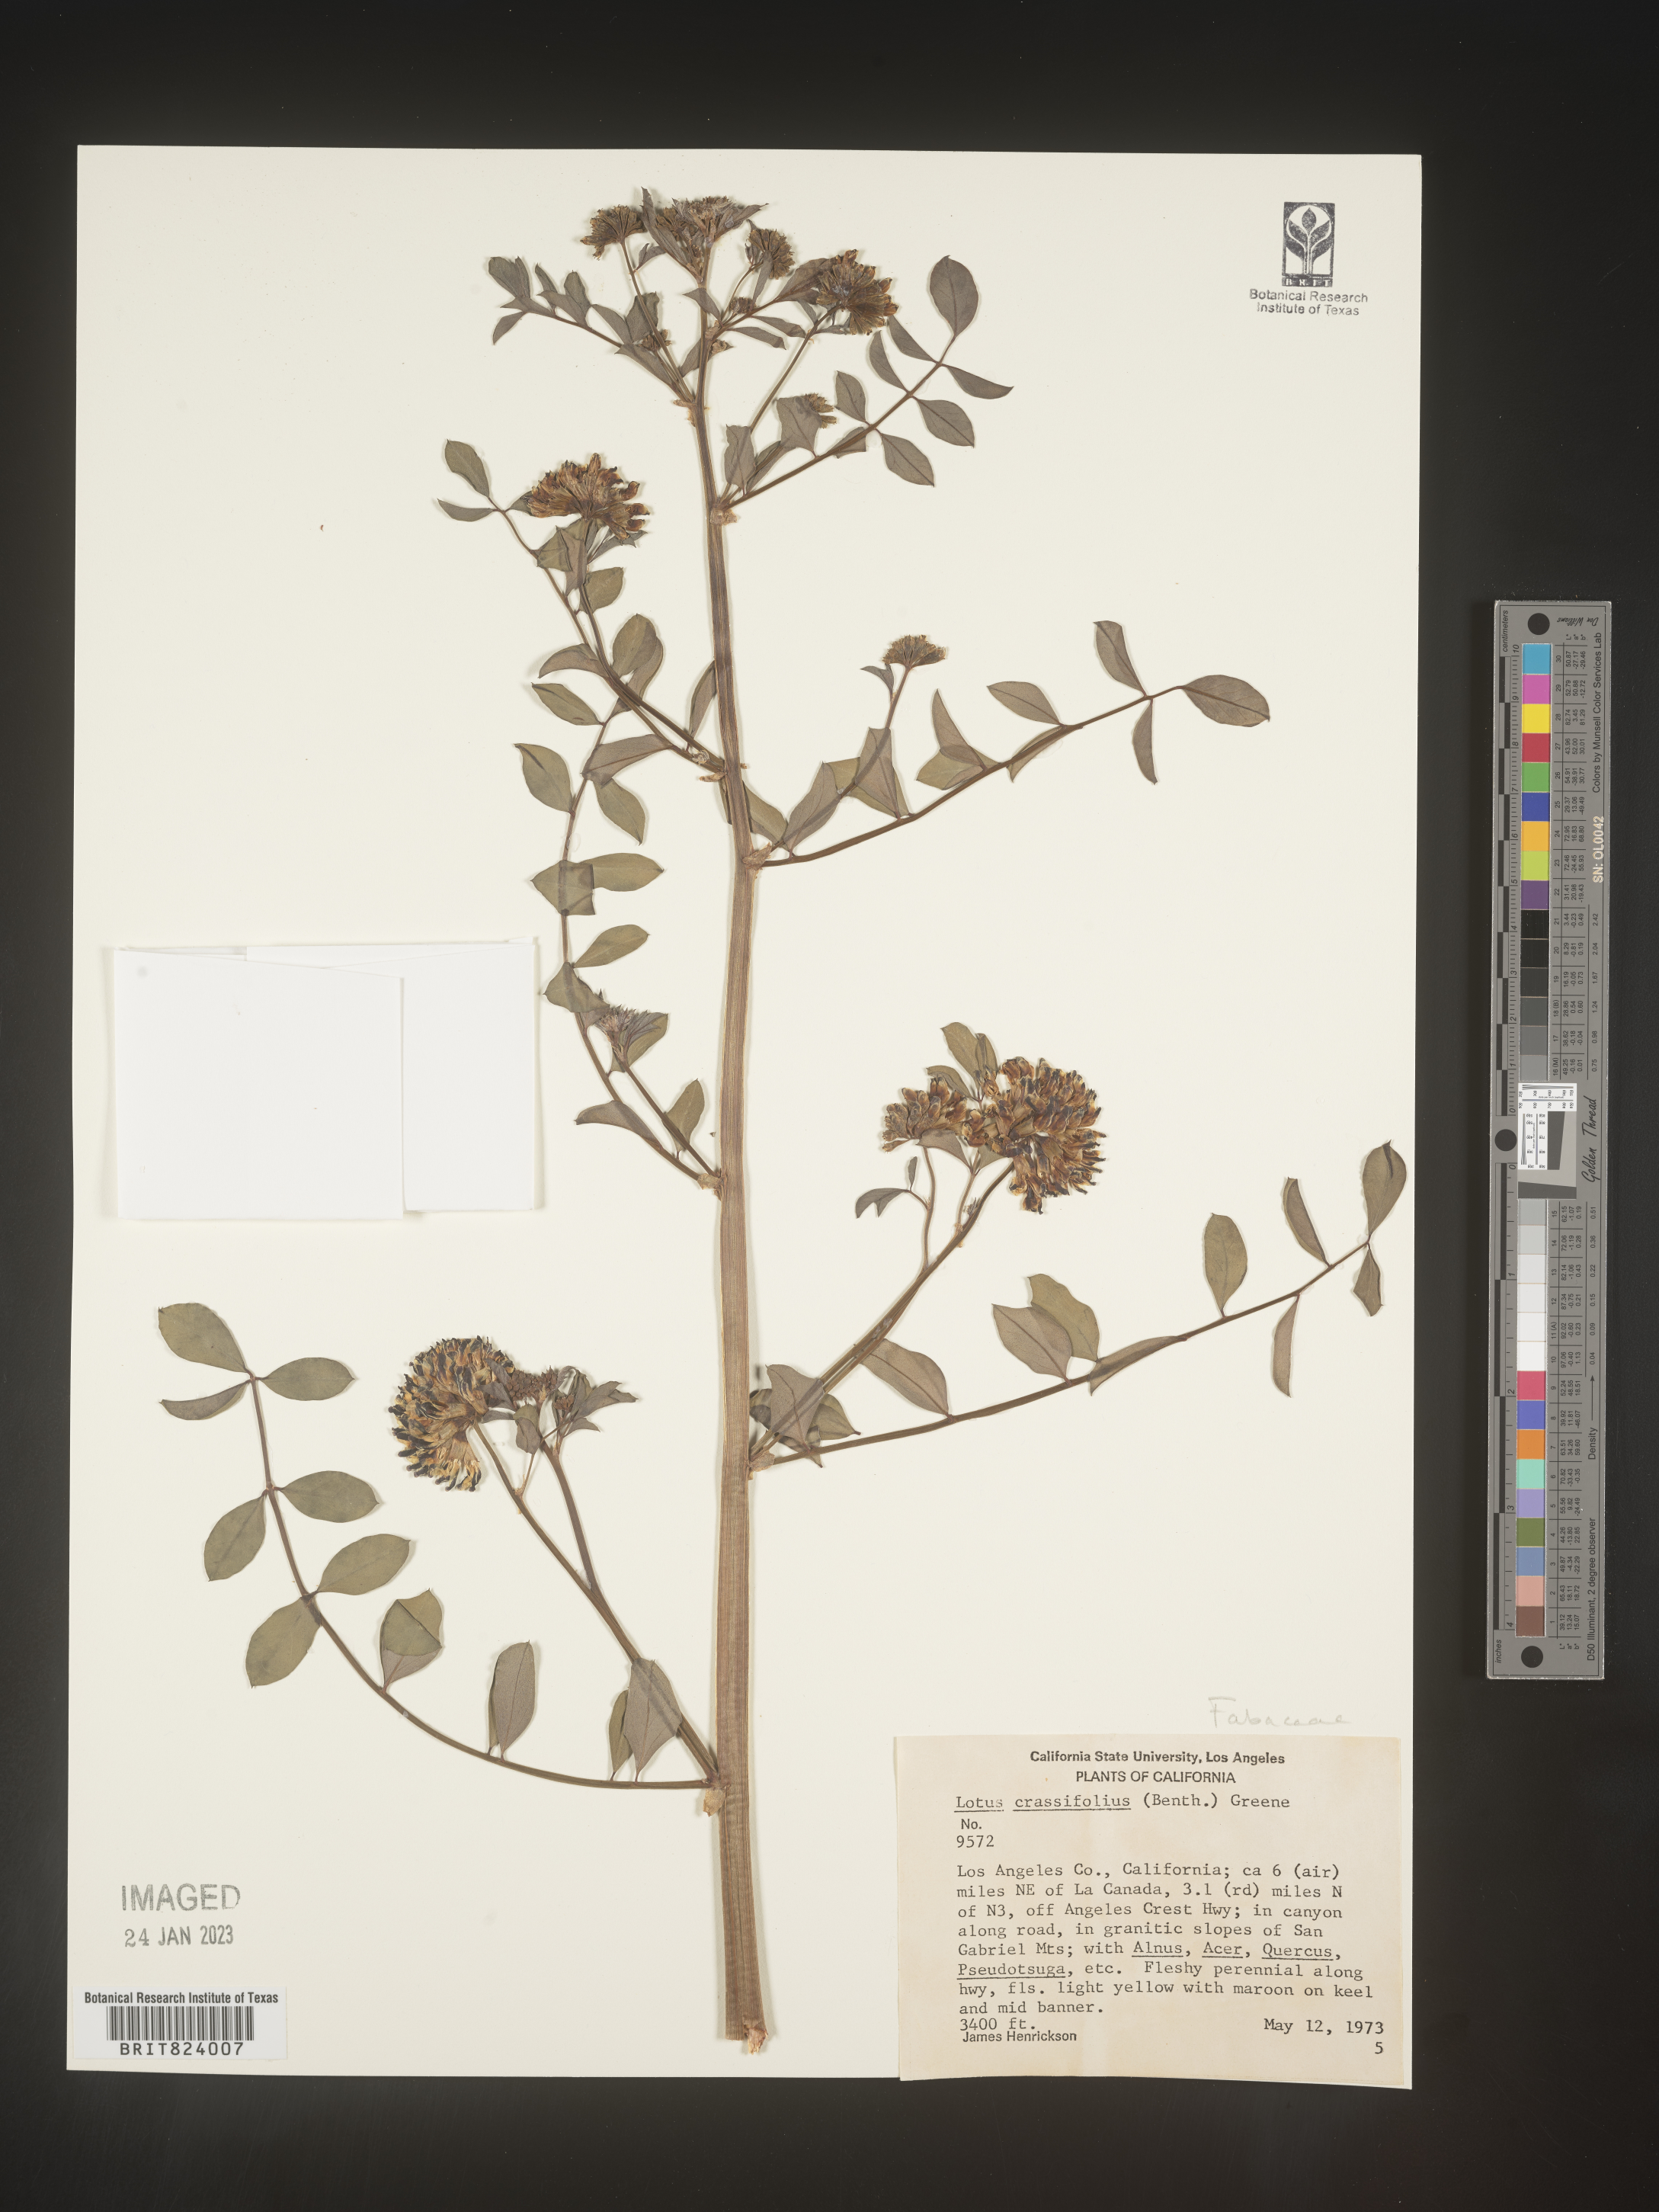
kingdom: Plantae
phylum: Tracheophyta
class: Magnoliopsida
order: Fabales
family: Fabaceae
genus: Hosackia
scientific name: Hosackia crassifolia
